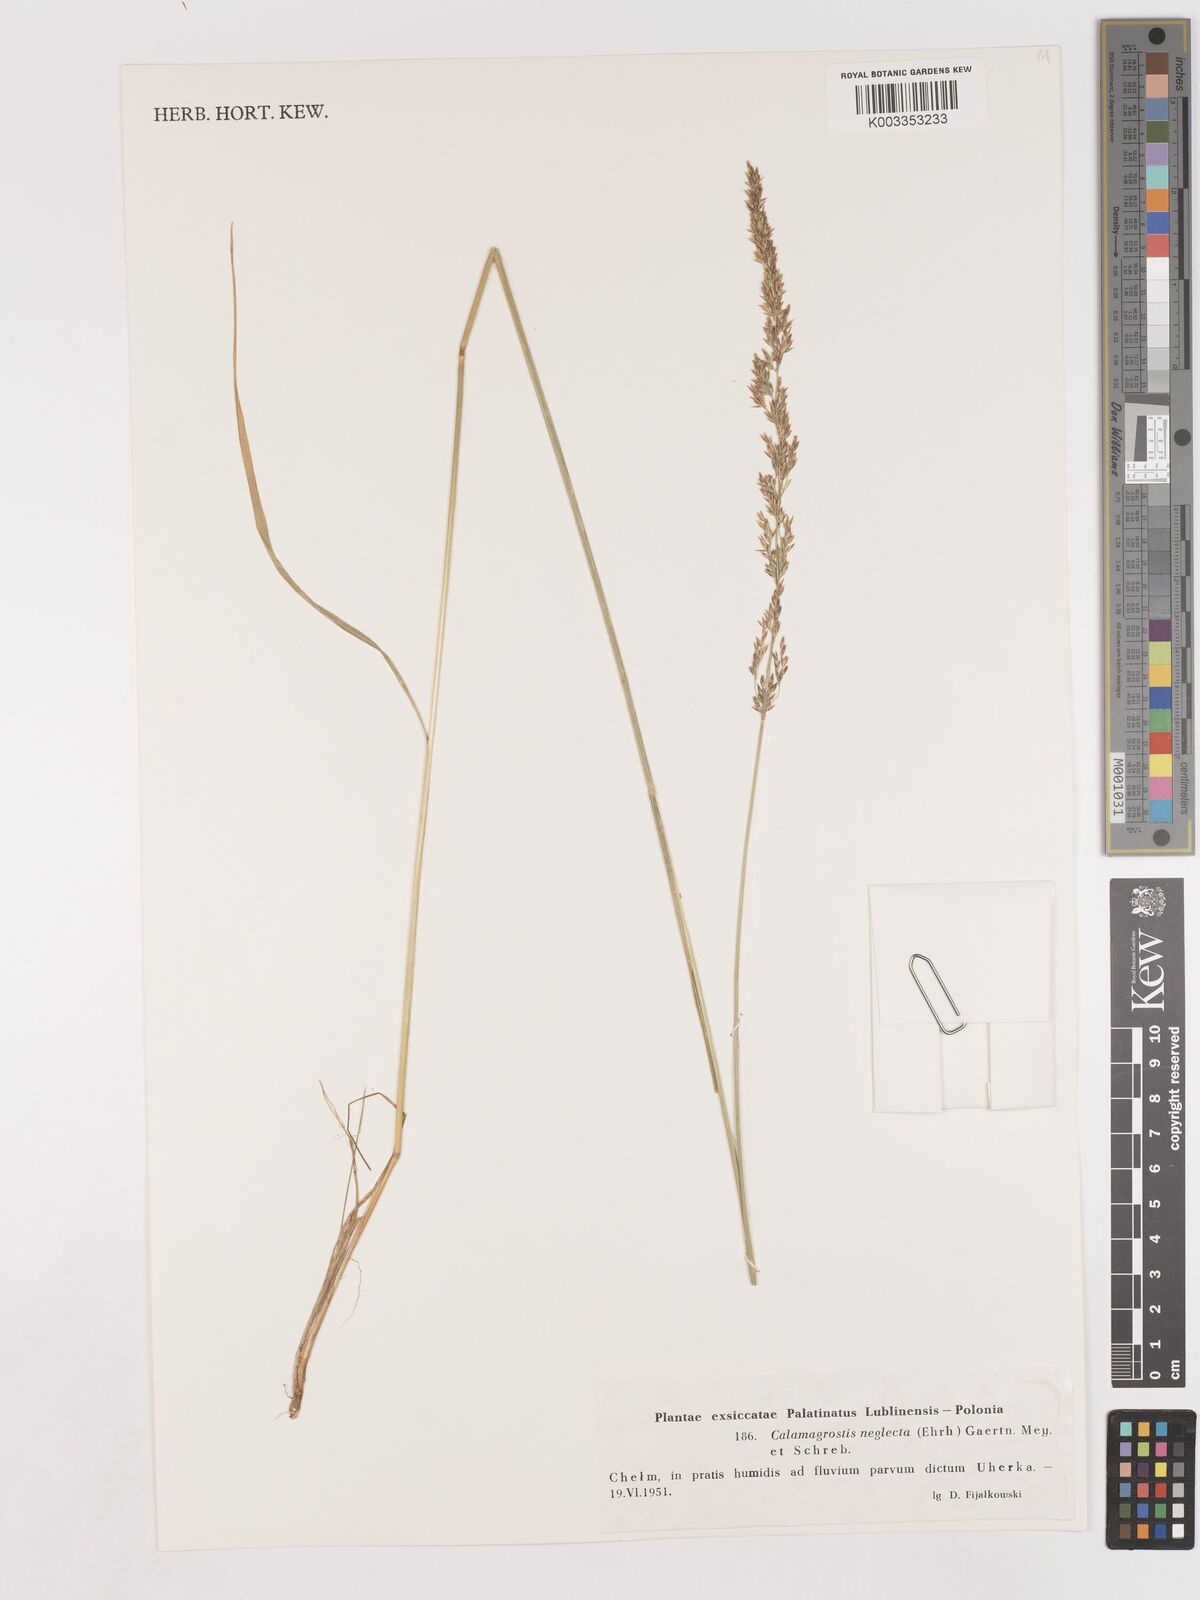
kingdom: Plantae
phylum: Tracheophyta
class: Liliopsida
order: Poales
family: Poaceae
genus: Cinnagrostis
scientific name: Cinnagrostis recta
